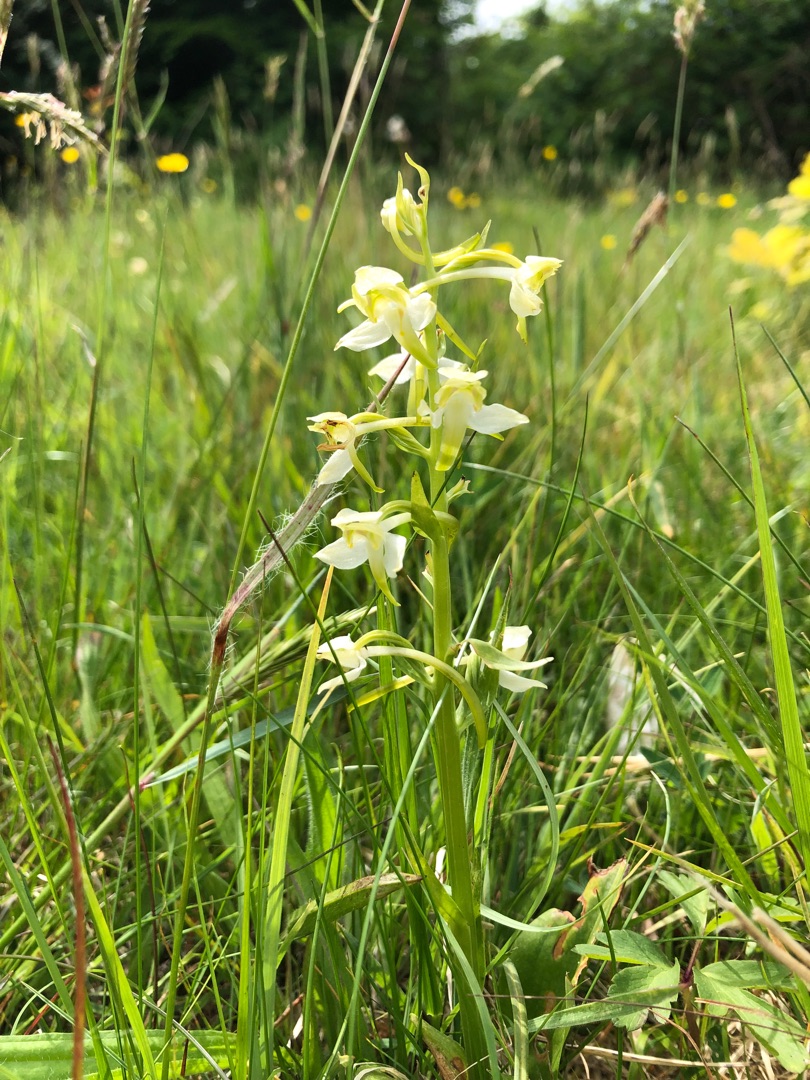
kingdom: Plantae
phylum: Tracheophyta
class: Liliopsida
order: Asparagales
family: Orchidaceae
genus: Platanthera
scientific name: Platanthera chlorantha
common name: Skov-gøgelilje
